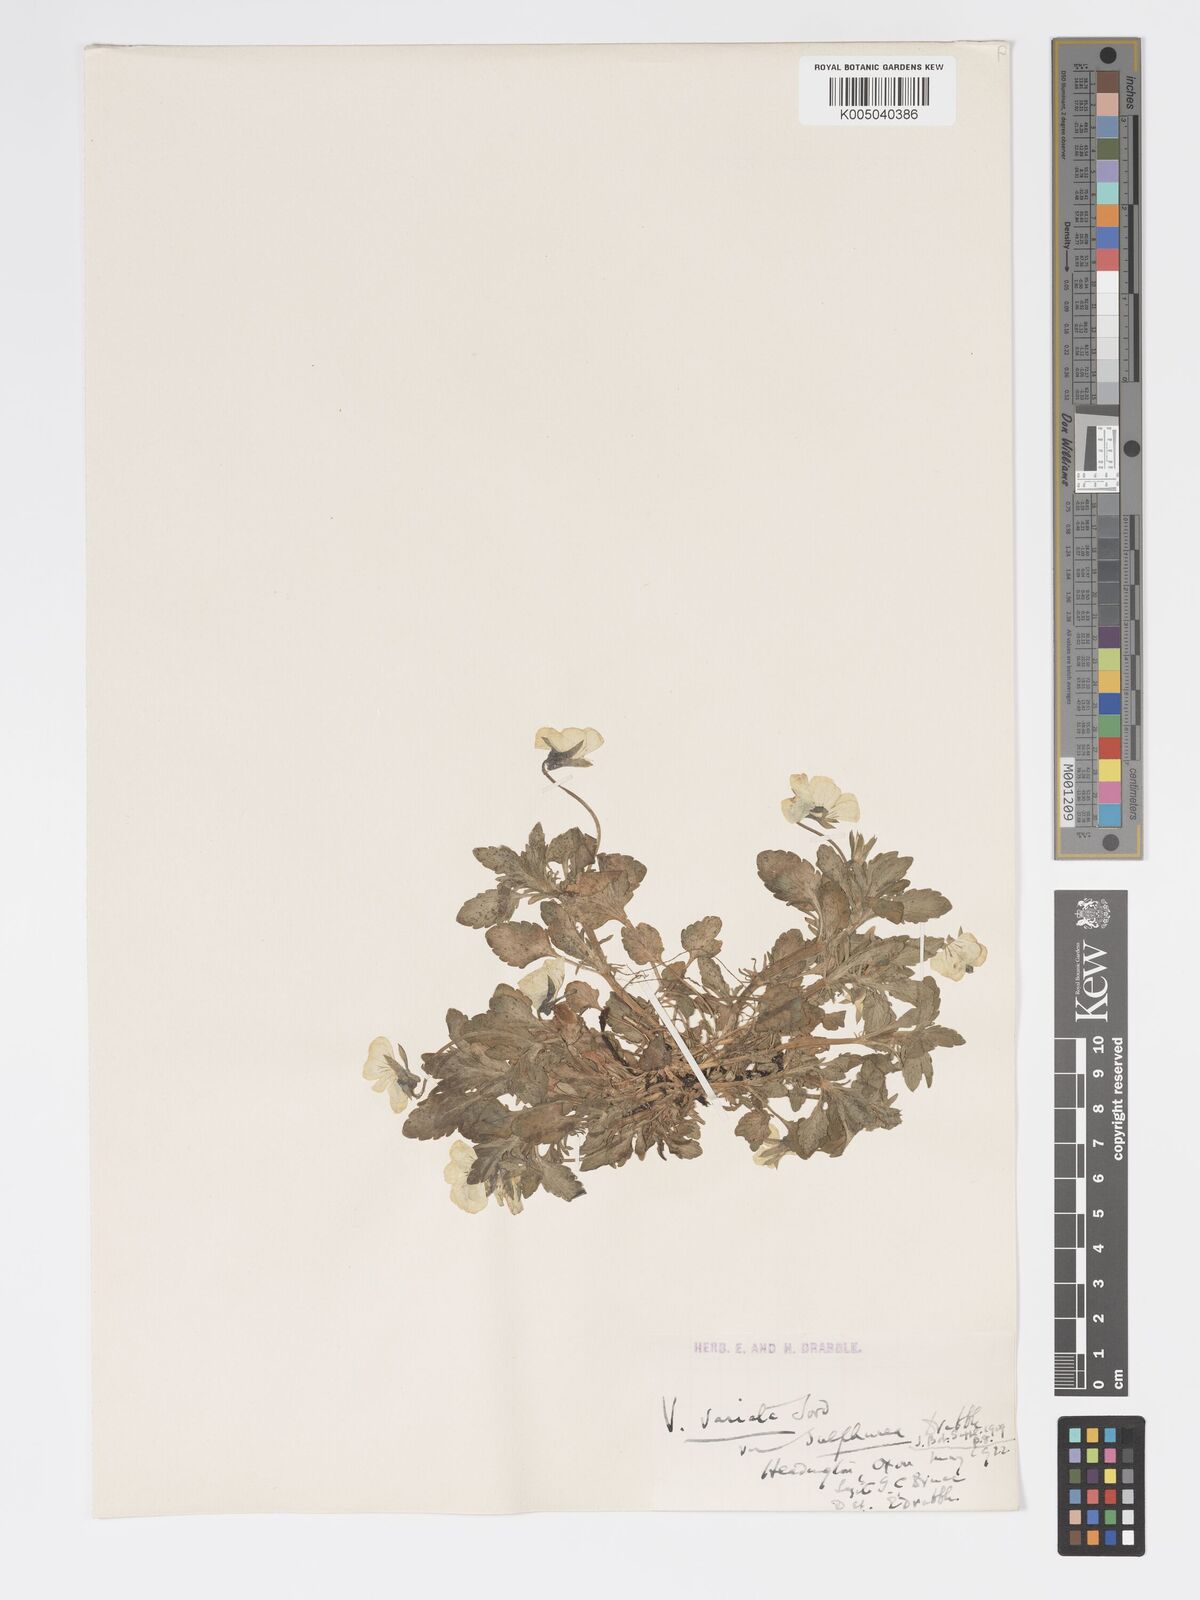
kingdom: Plantae
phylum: Tracheophyta
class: Magnoliopsida
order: Malpighiales
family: Violaceae
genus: Viola
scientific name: Viola arvensis
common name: Field pansy
